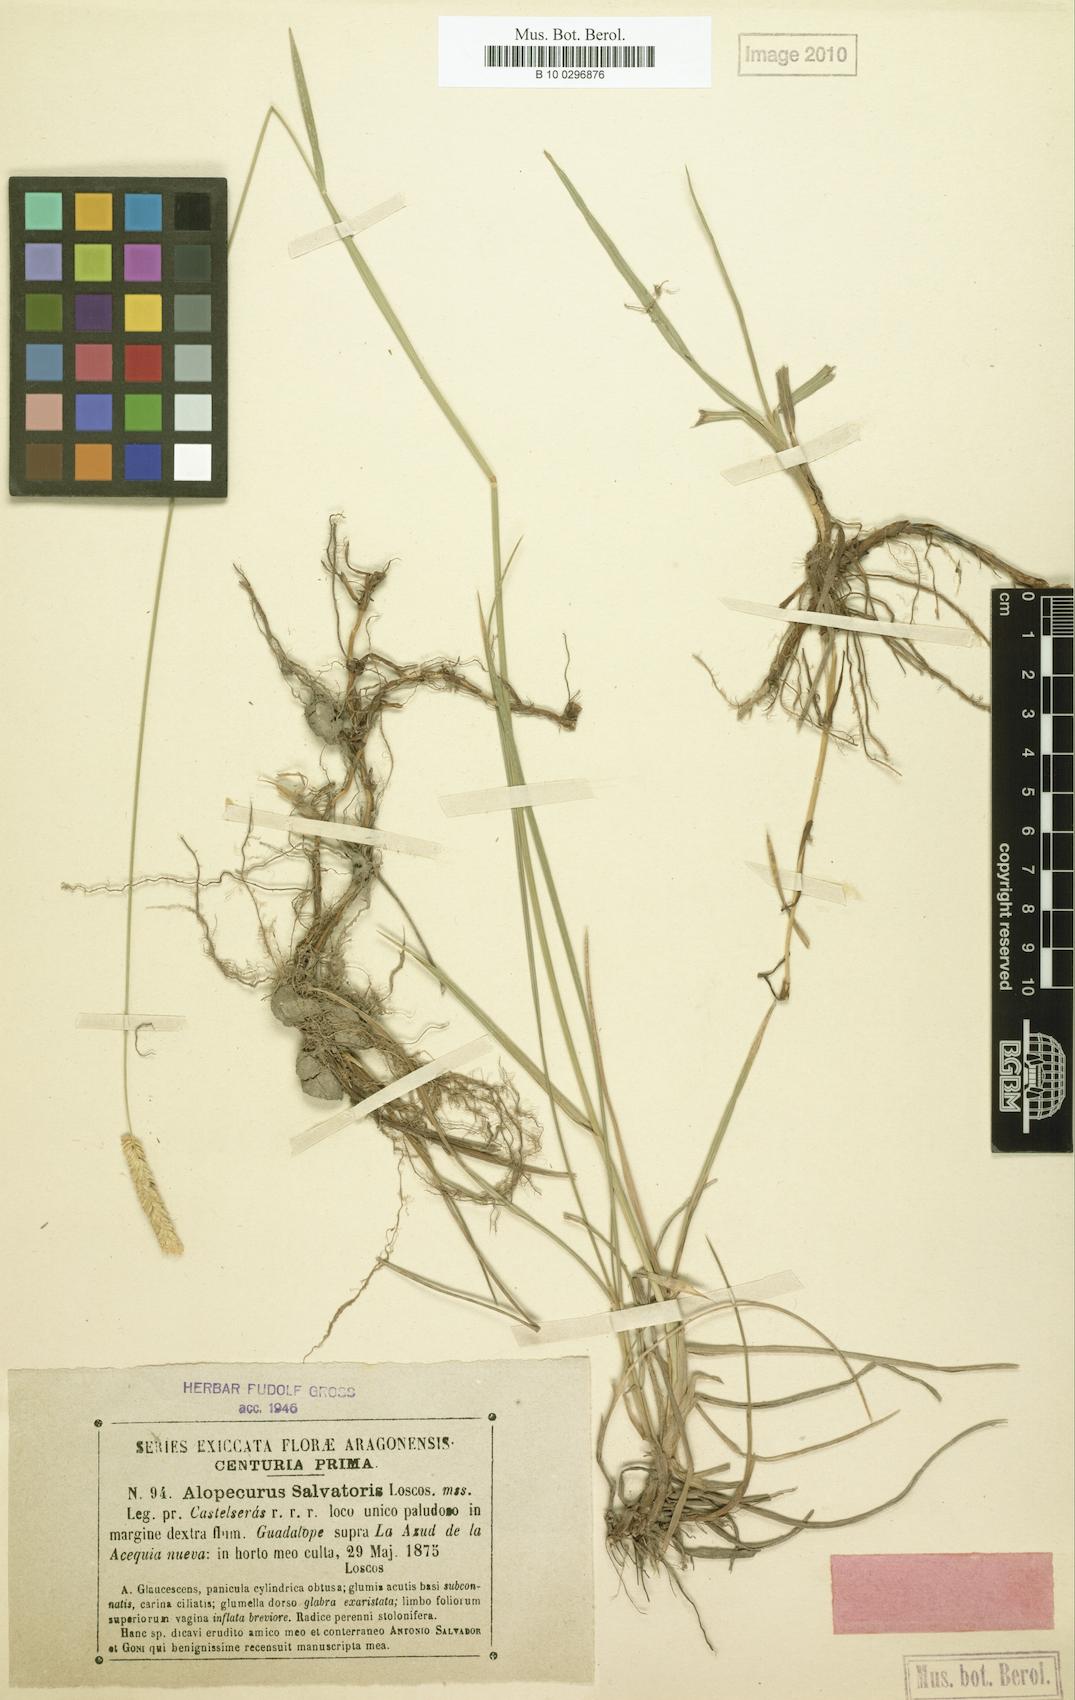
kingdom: Plantae
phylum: Tracheophyta
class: Liliopsida
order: Poales
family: Poaceae
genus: Alopecurus
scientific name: Alopecurus arundinaceus
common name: Creeping meadow foxtail
